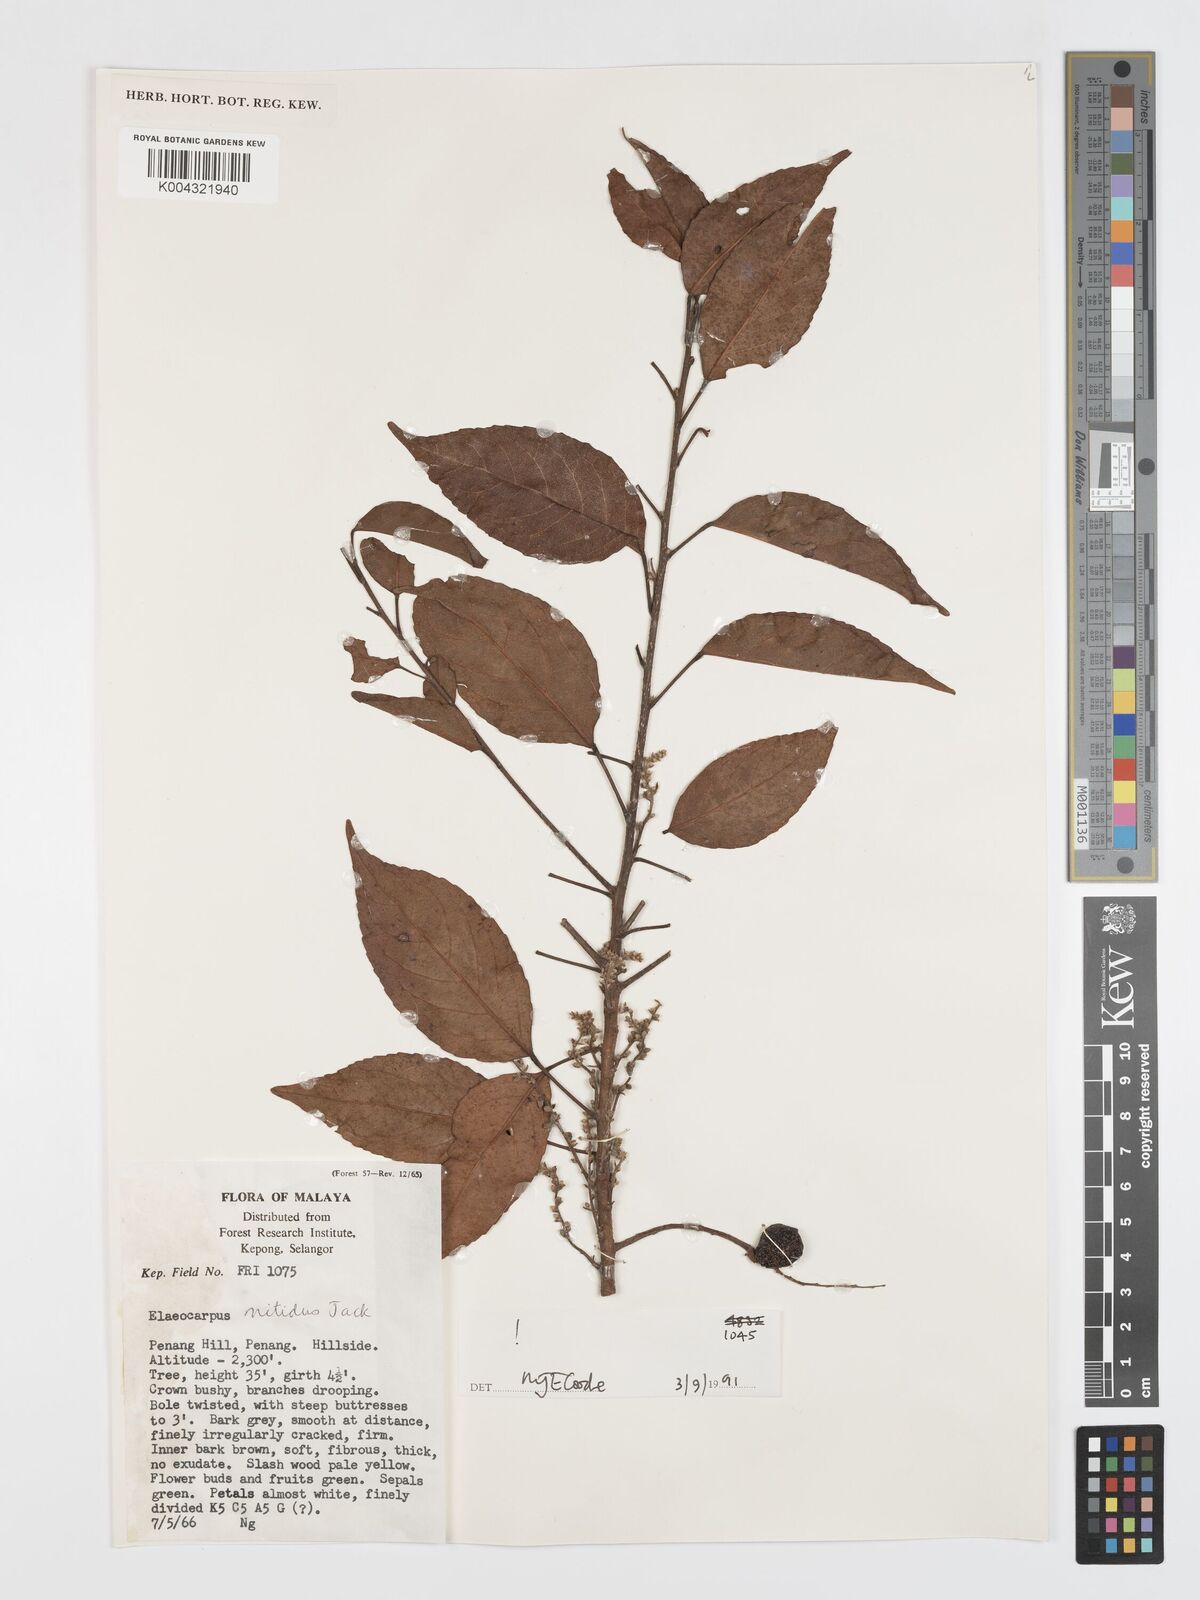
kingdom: Plantae
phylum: Tracheophyta
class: Magnoliopsida
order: Oxalidales
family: Elaeocarpaceae
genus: Elaeocarpus
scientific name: Elaeocarpus nitidus
